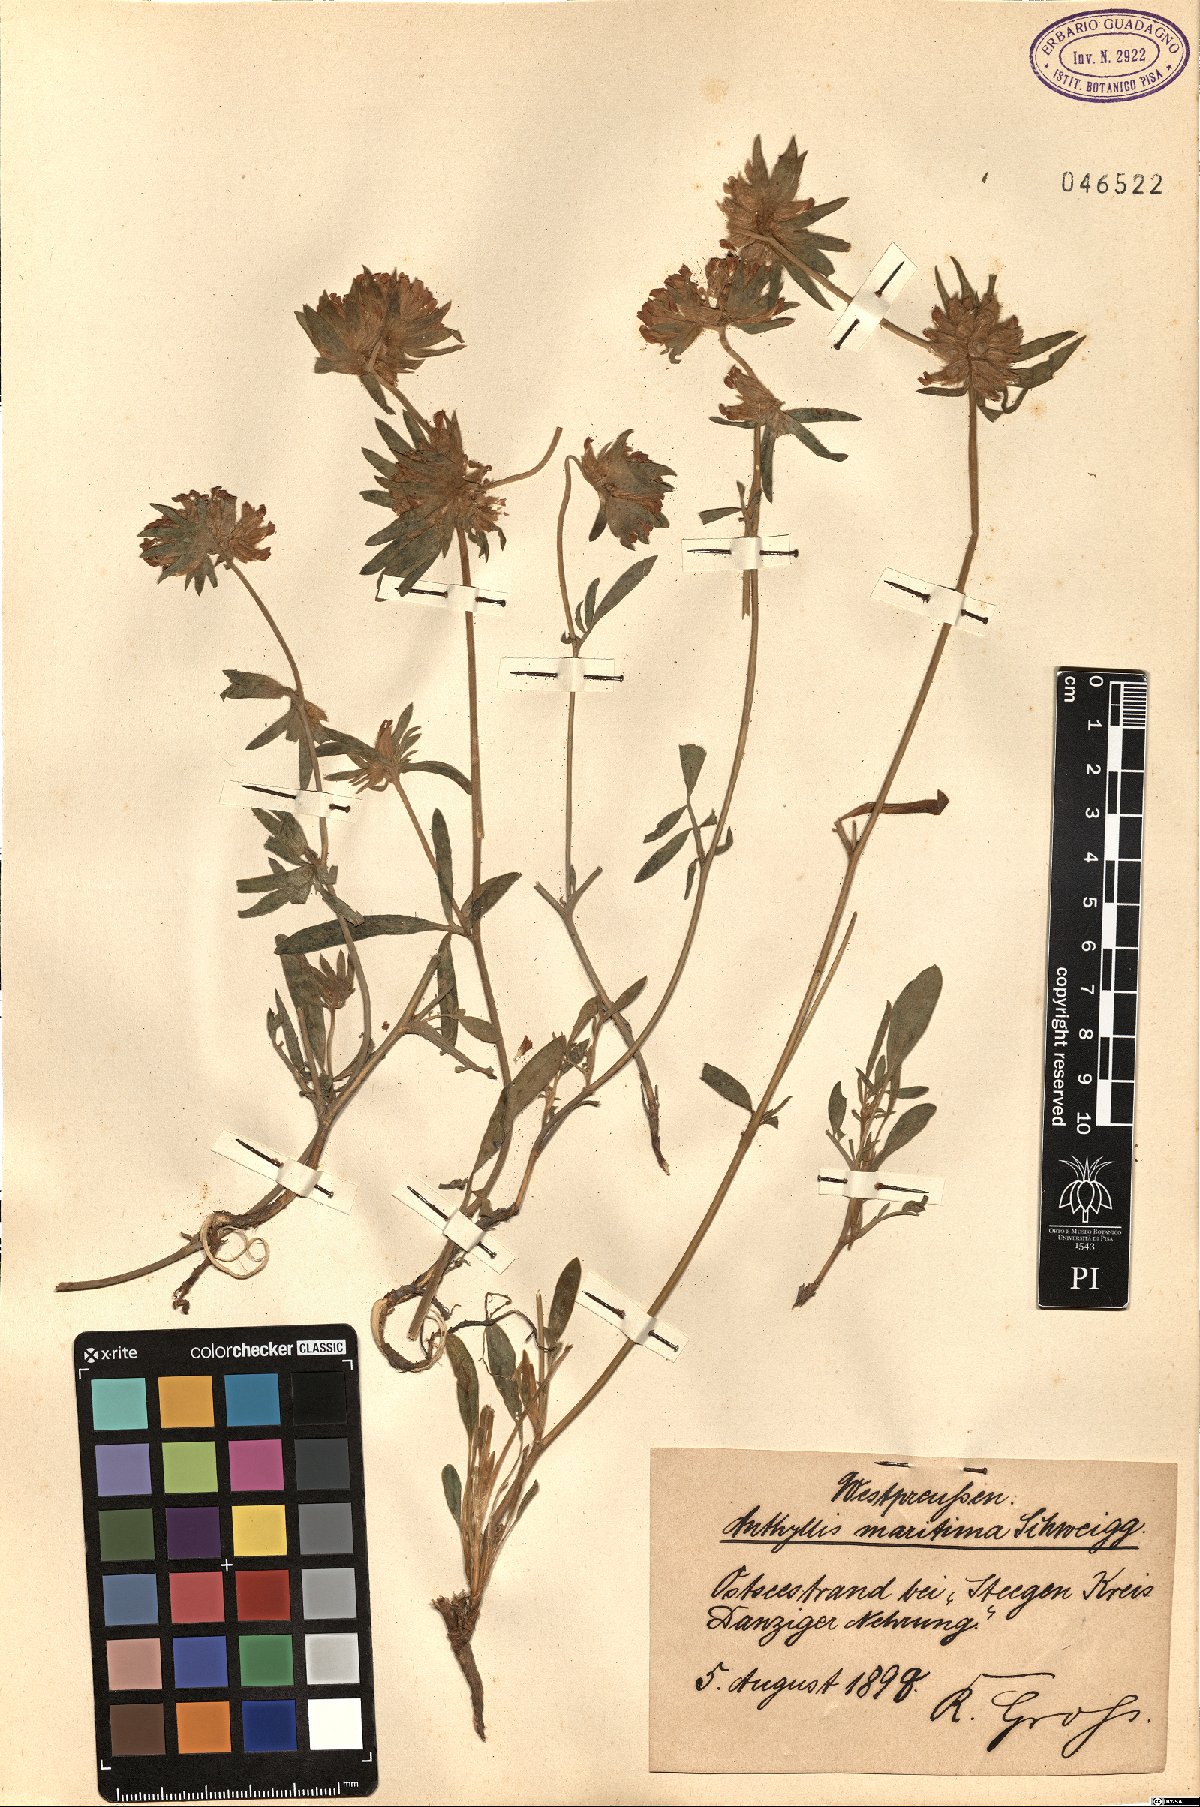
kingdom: Plantae
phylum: Tracheophyta
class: Magnoliopsida
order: Fabales
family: Fabaceae
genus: Anthyllis
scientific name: Anthyllis vulneraria
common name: Kidney vetch
